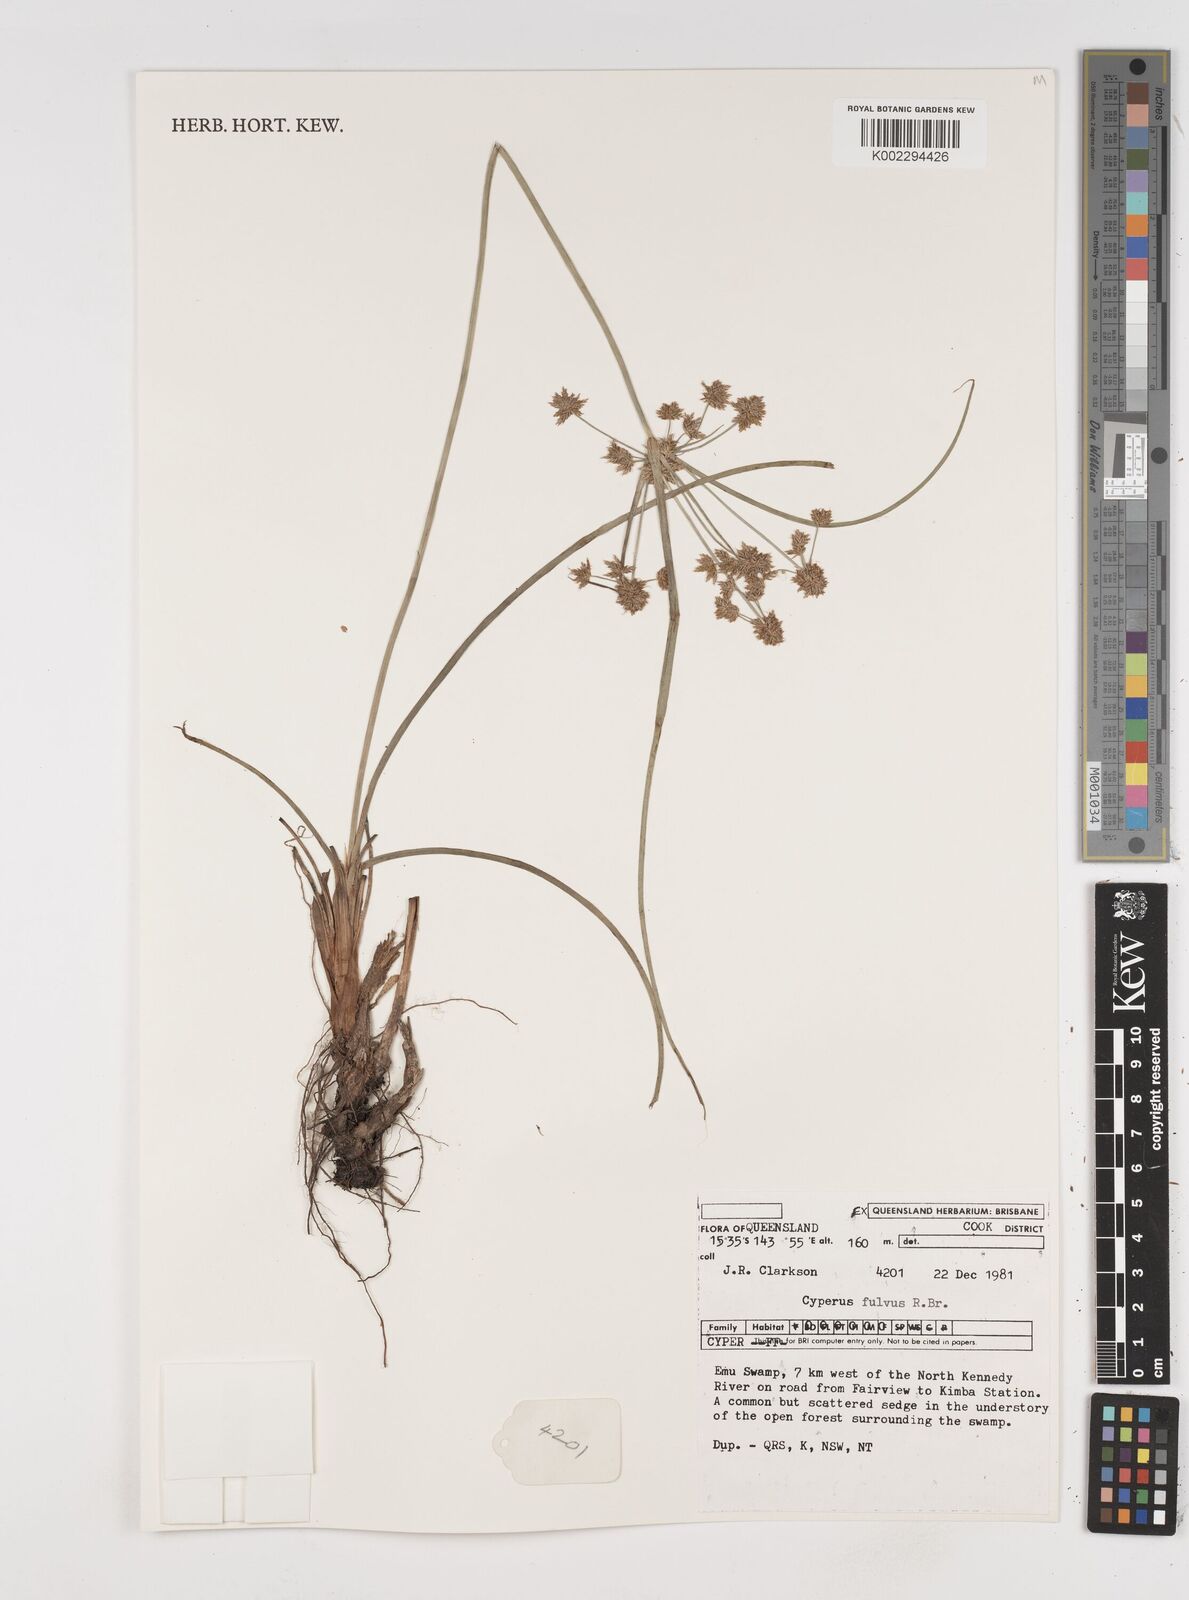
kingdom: Plantae
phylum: Tracheophyta
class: Liliopsida
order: Poales
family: Cyperaceae
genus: Cyperus
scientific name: Cyperus fulvus
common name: Sticky sedge
